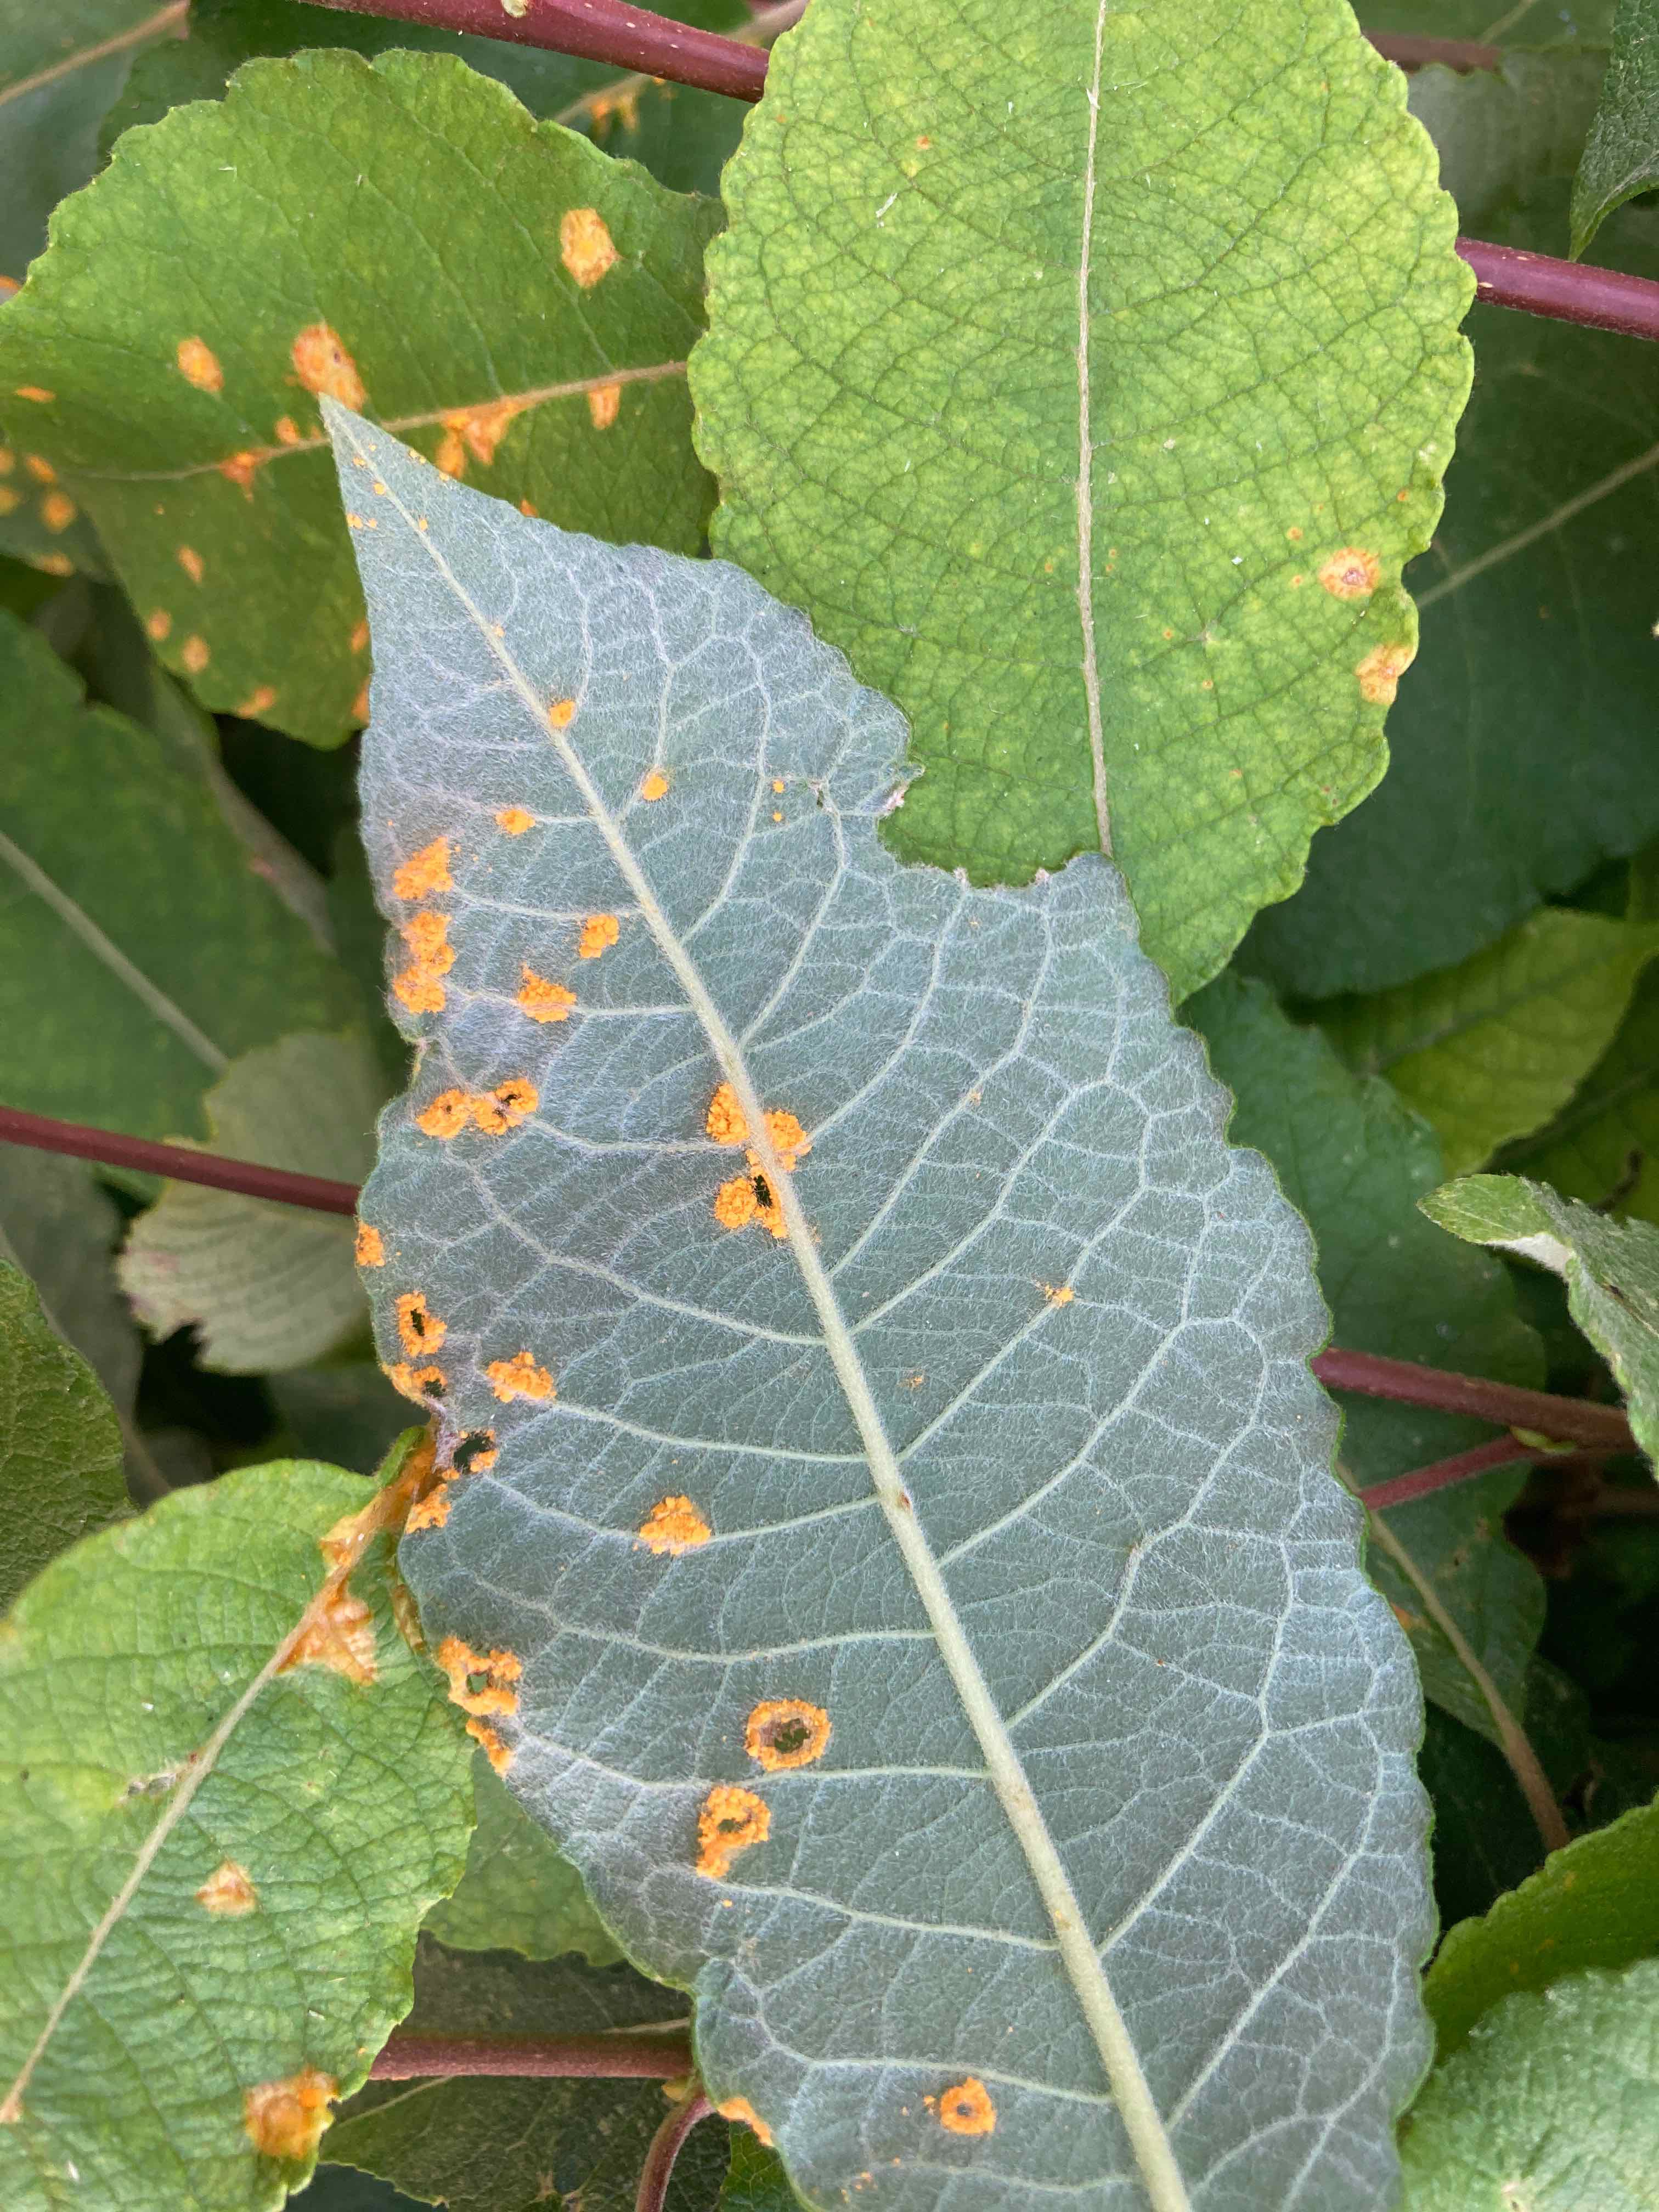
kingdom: Fungi
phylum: Basidiomycota
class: Pucciniomycetes
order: Pucciniales
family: Melampsoraceae
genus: Melampsora
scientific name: Melampsora epitea
